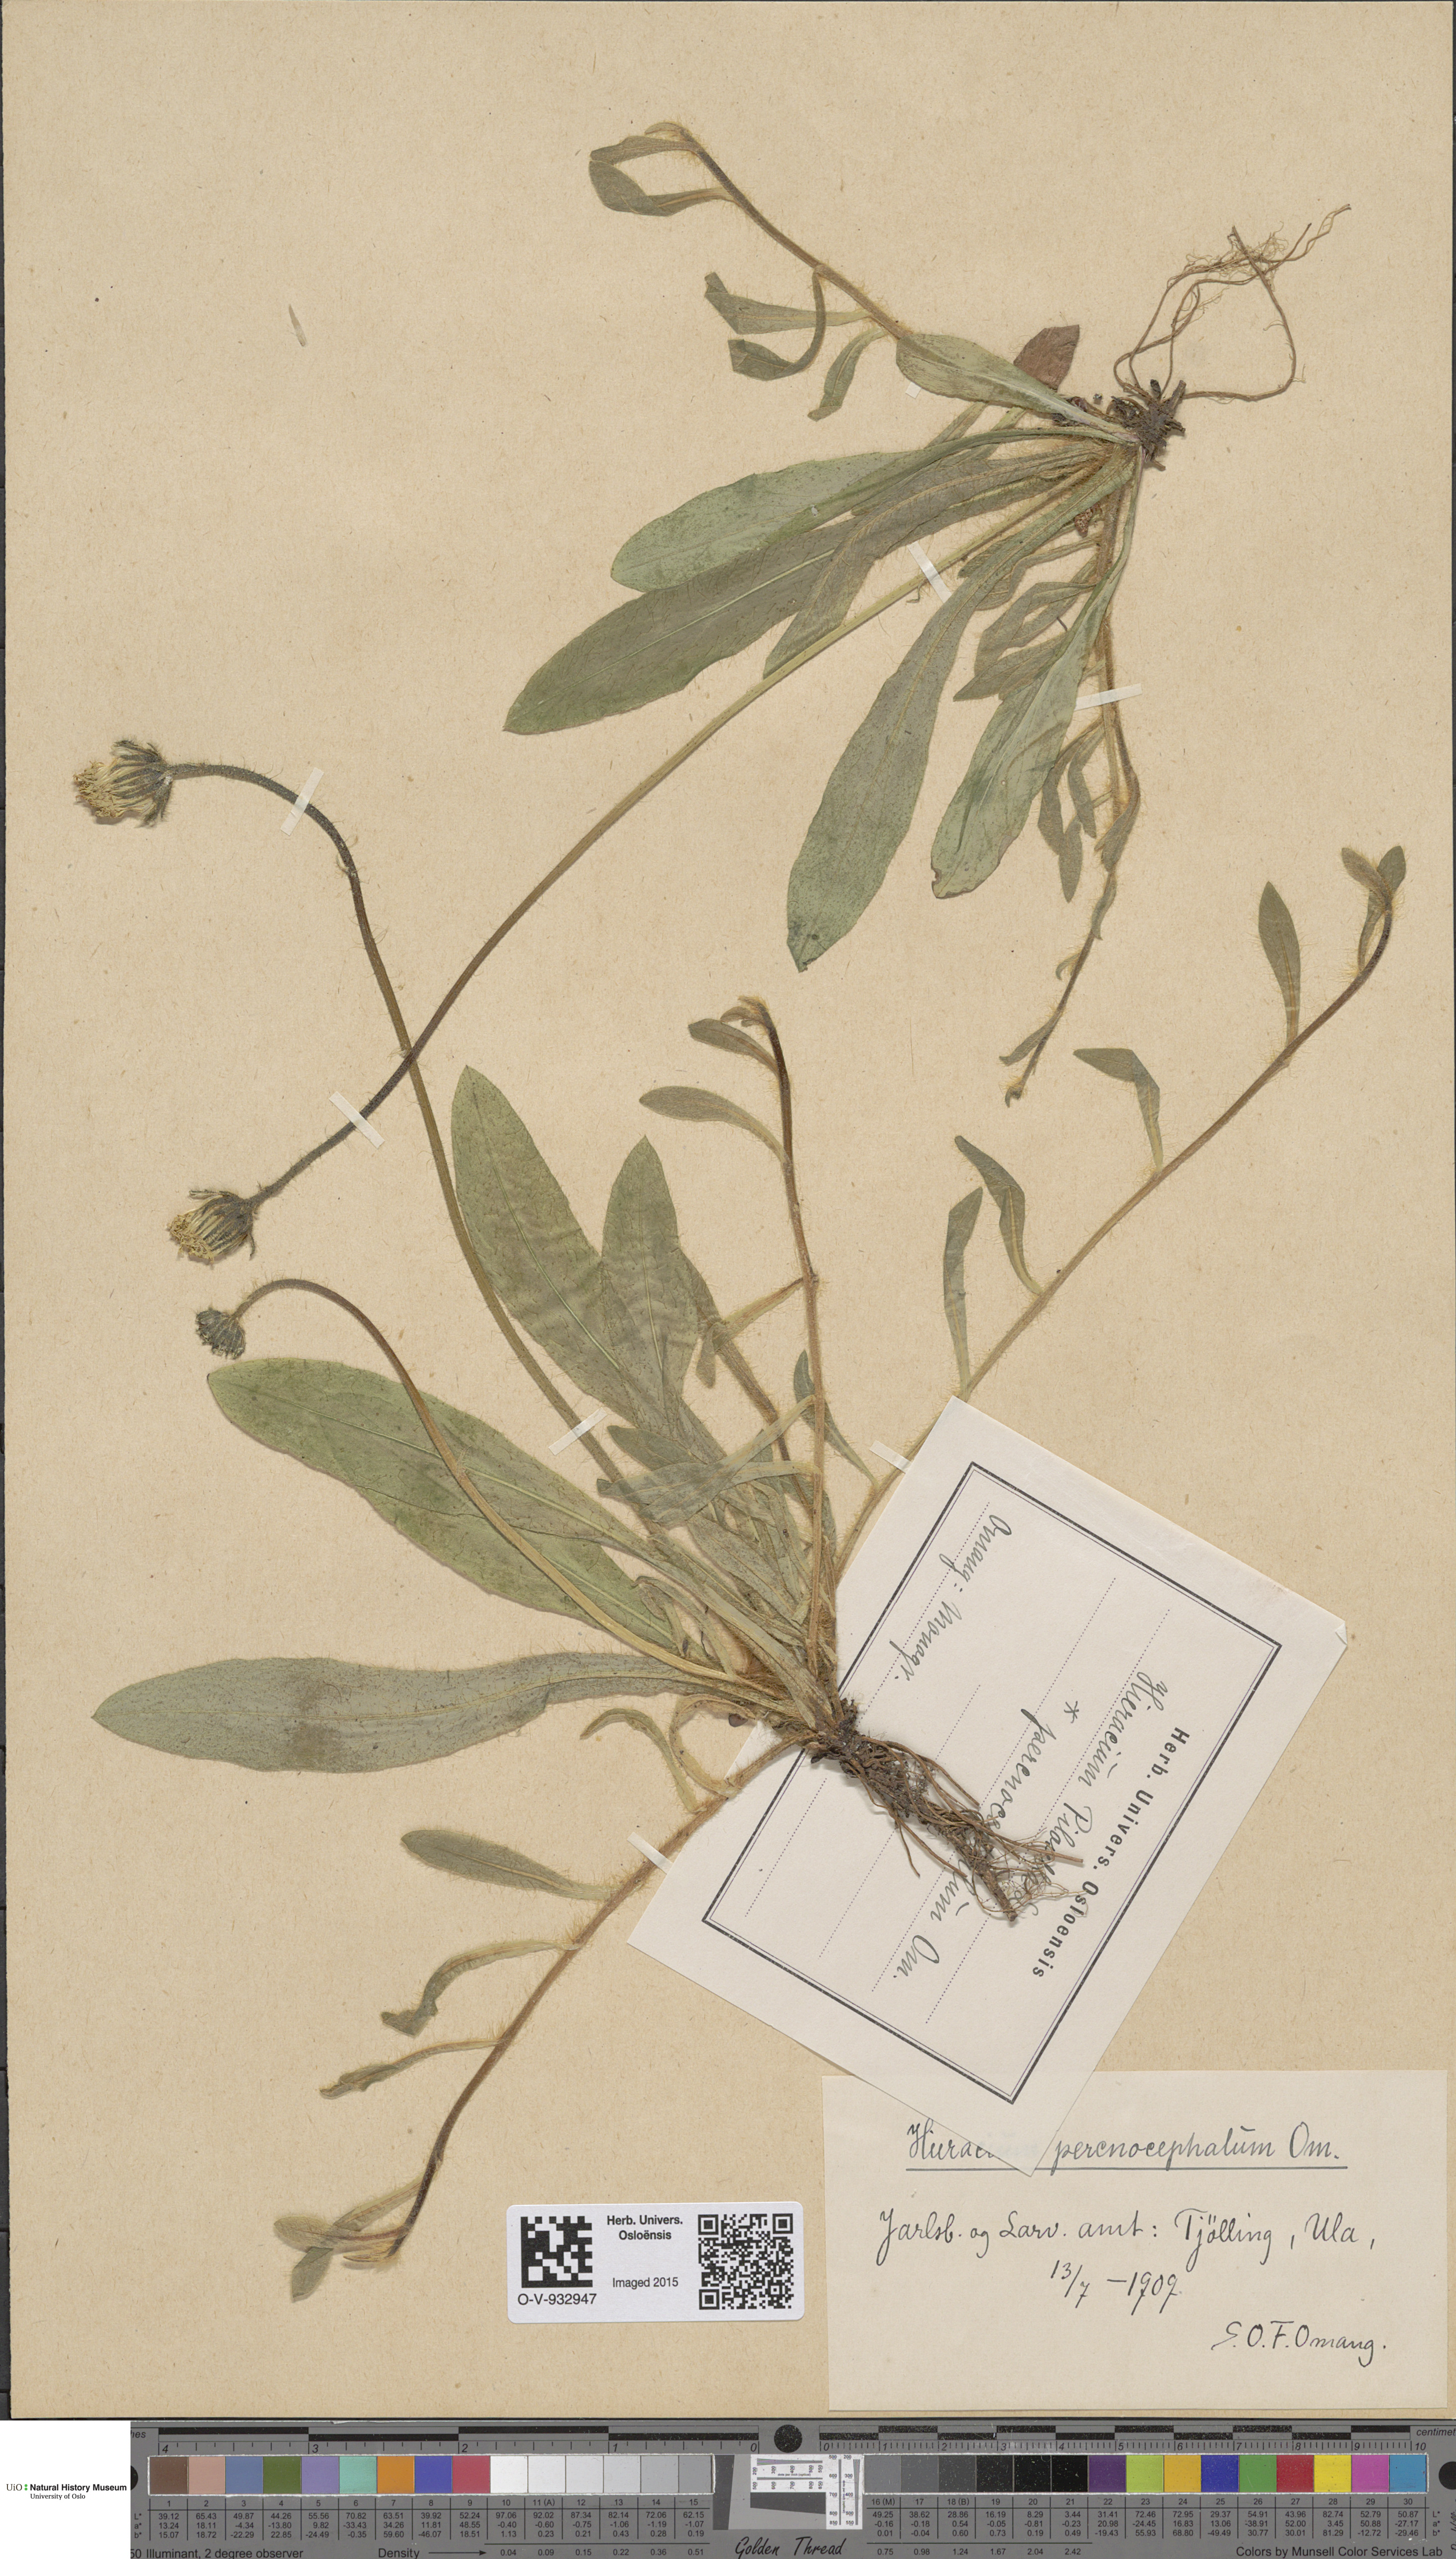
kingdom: Plantae
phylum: Tracheophyta
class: Magnoliopsida
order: Asterales
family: Asteraceae
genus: Pilosella
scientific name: Pilosella officinarum
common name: Mouse-ear hawkweed
